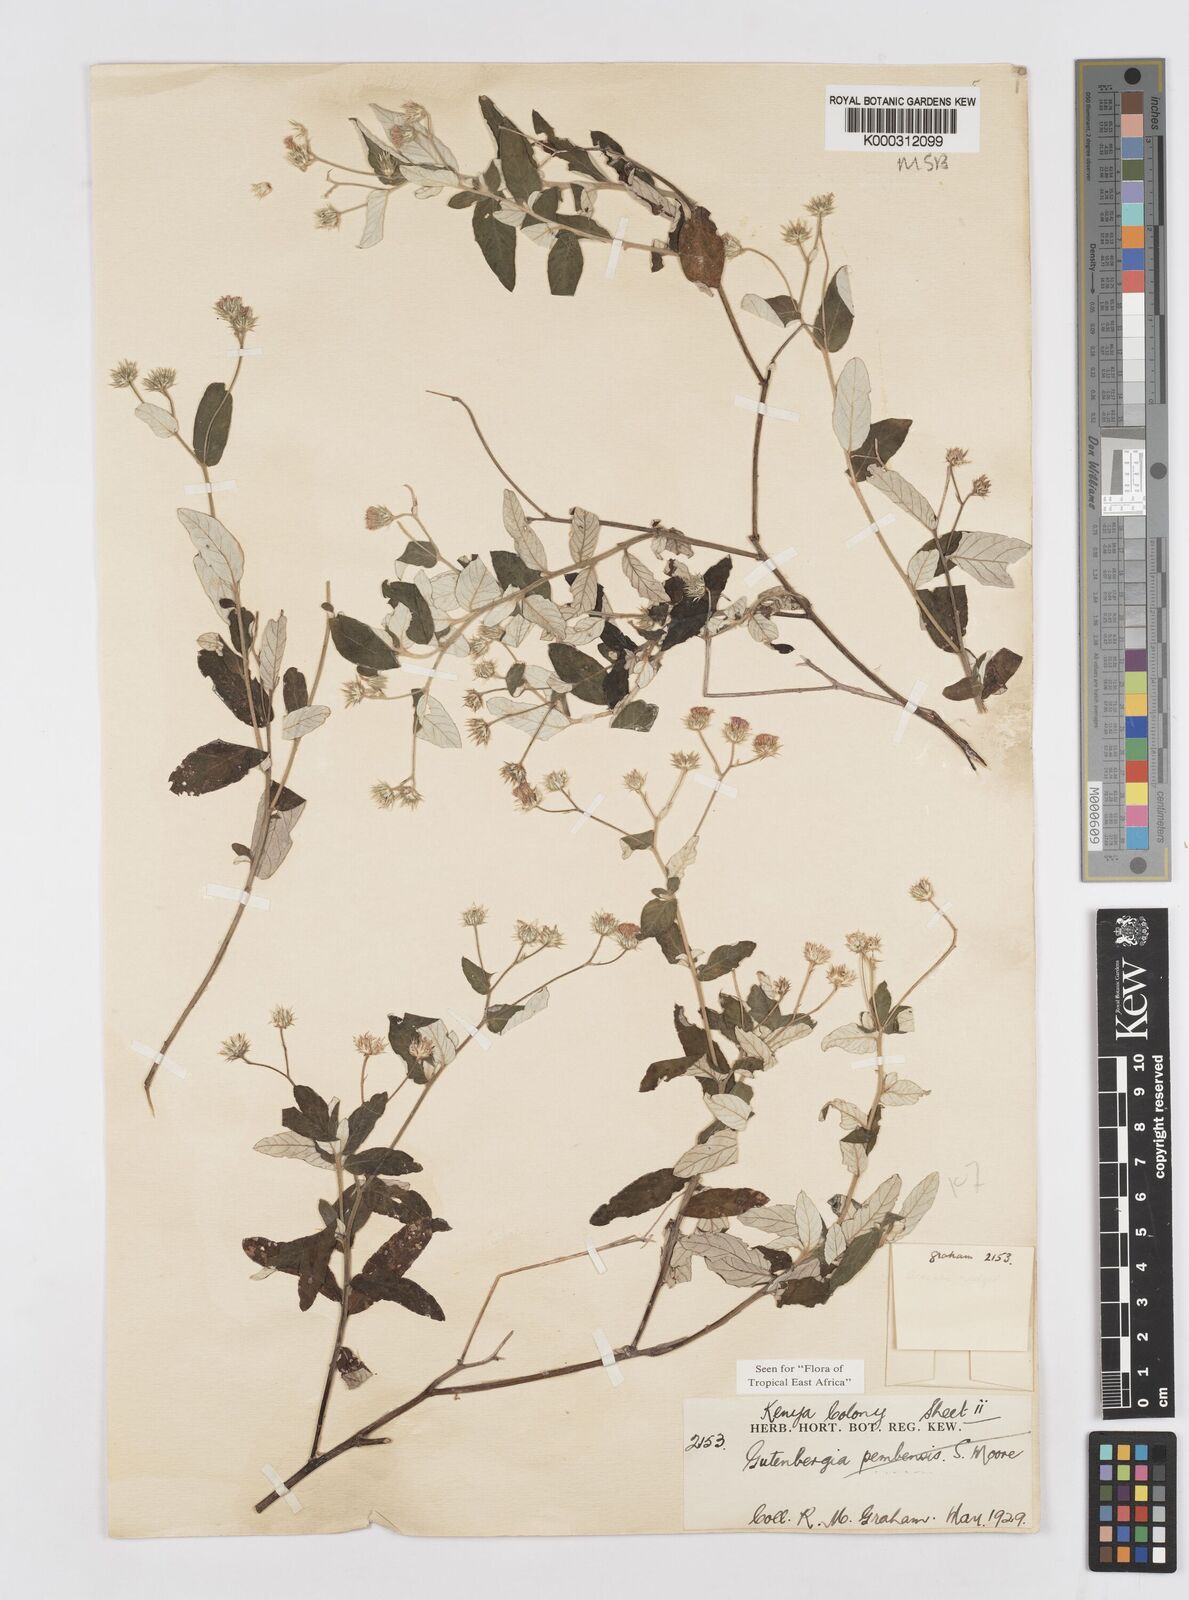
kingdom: Plantae
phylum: Tracheophyta
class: Magnoliopsida
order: Asterales
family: Asteraceae
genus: Gutenbergia
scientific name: Gutenbergia pembensis
